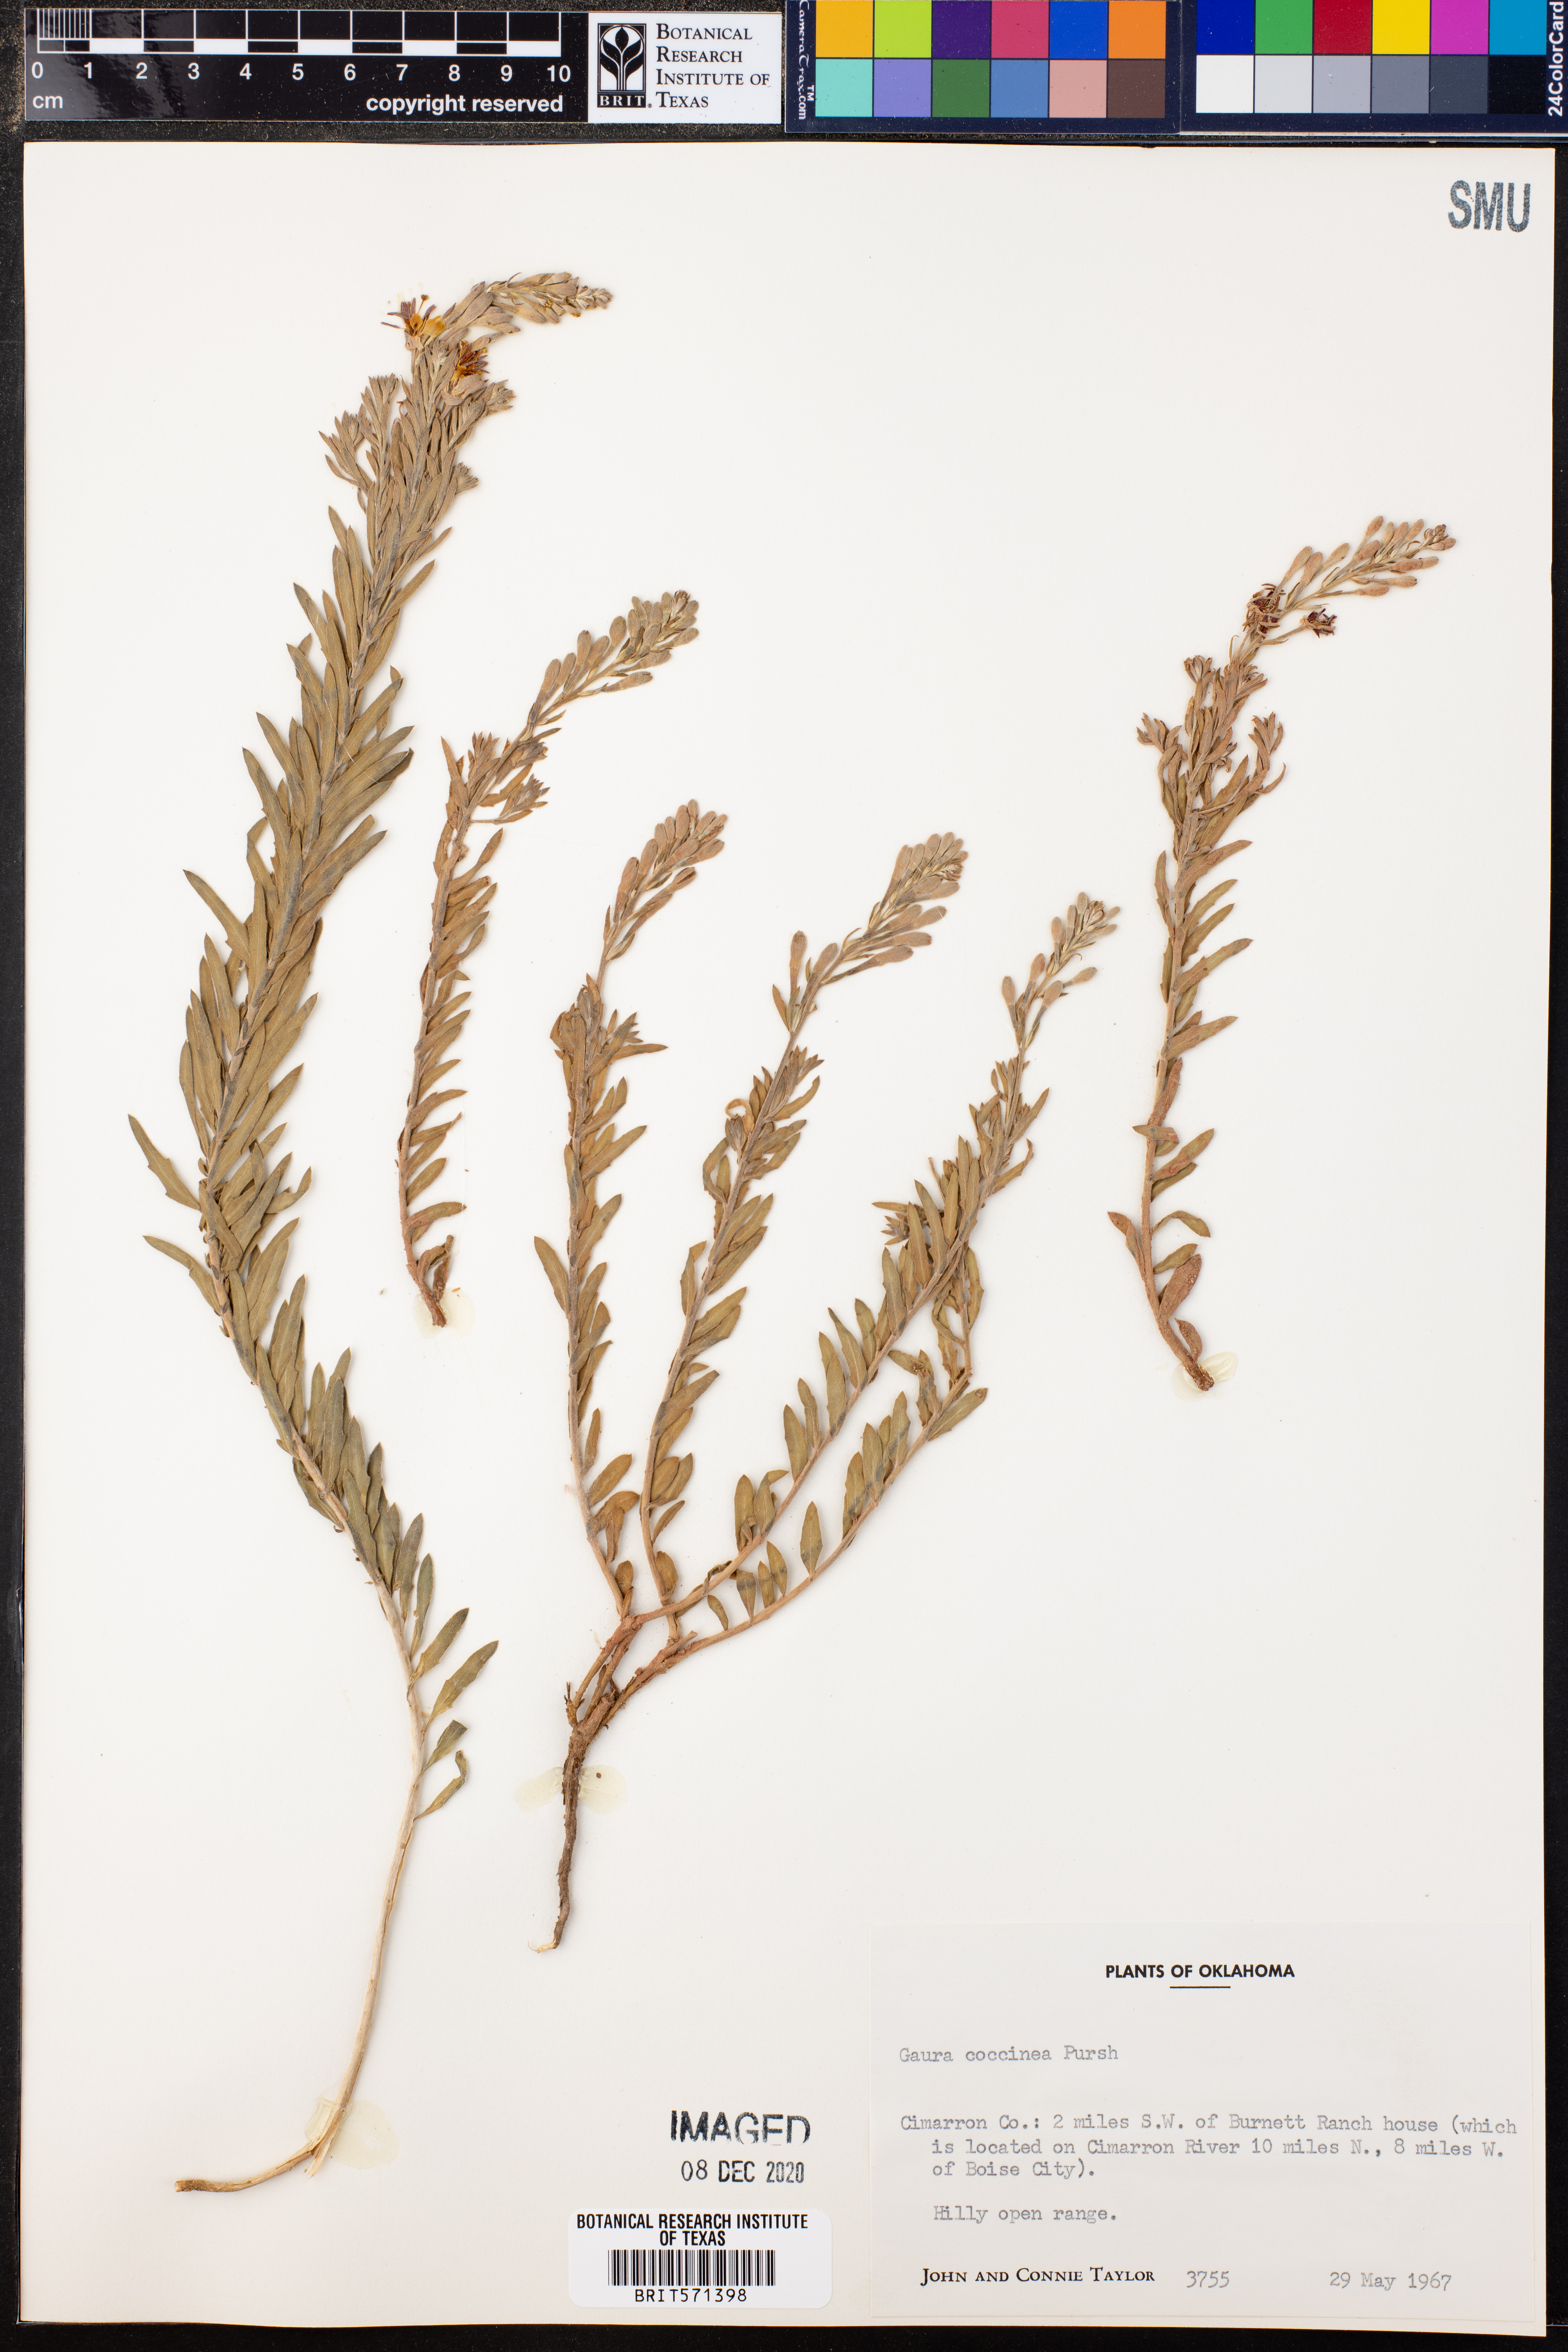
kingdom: Plantae
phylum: Tracheophyta
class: Magnoliopsida
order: Myrtales
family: Onagraceae
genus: Oenothera
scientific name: Oenothera suffrutescens
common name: Scarlet beeblossom
